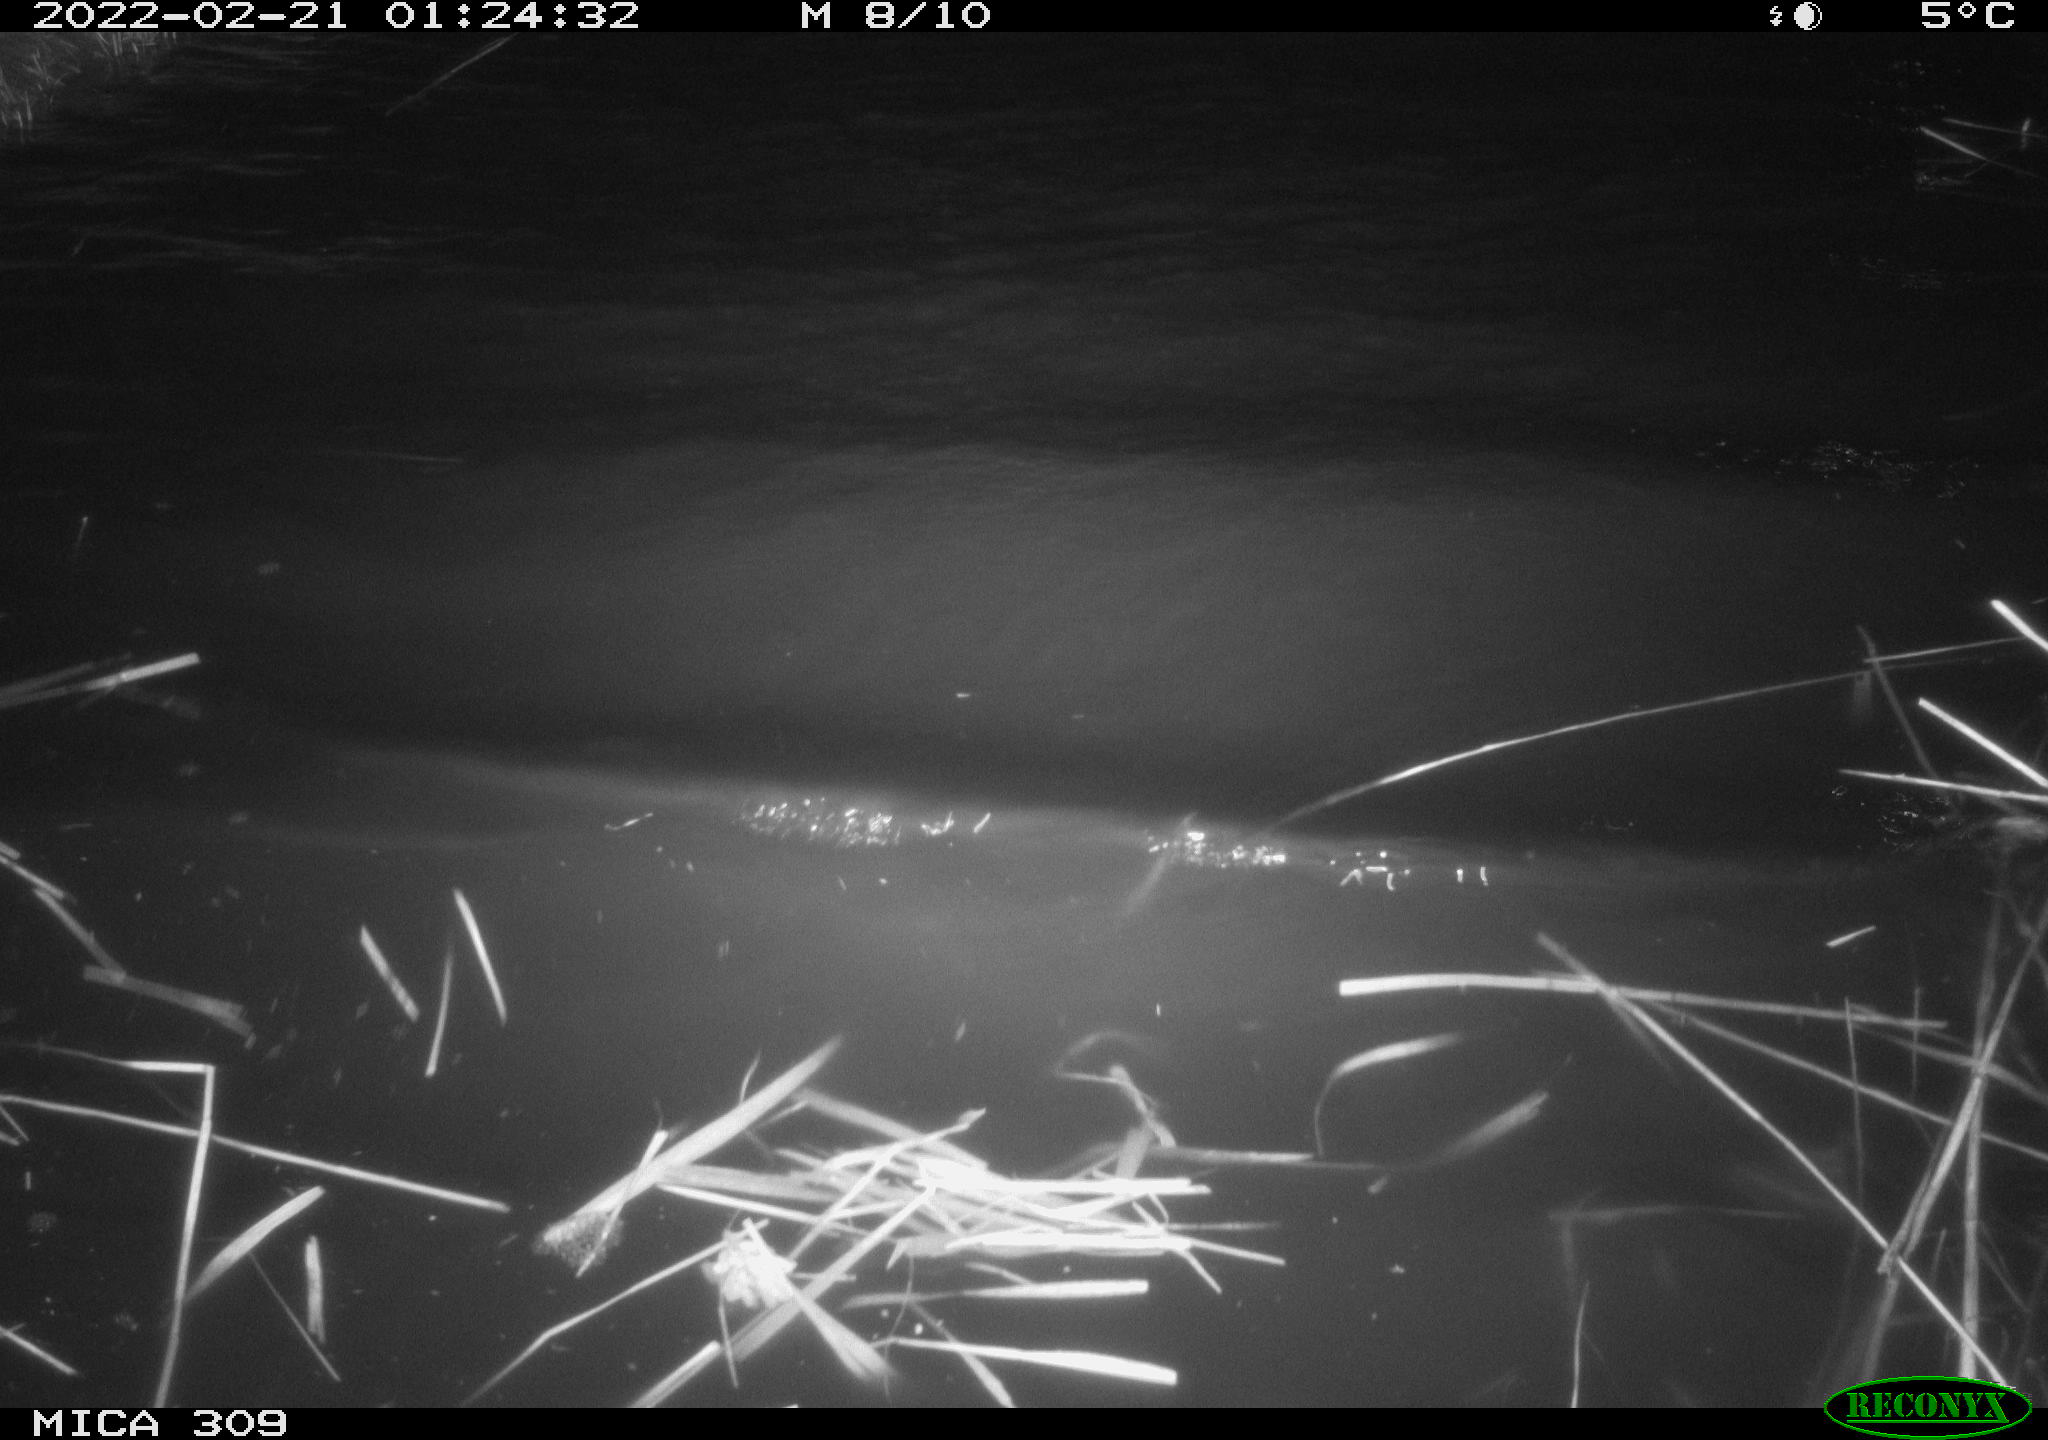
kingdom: Animalia
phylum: Chordata
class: Mammalia
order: Rodentia
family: Cricetidae
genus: Ondatra
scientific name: Ondatra zibethicus
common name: Muskrat
